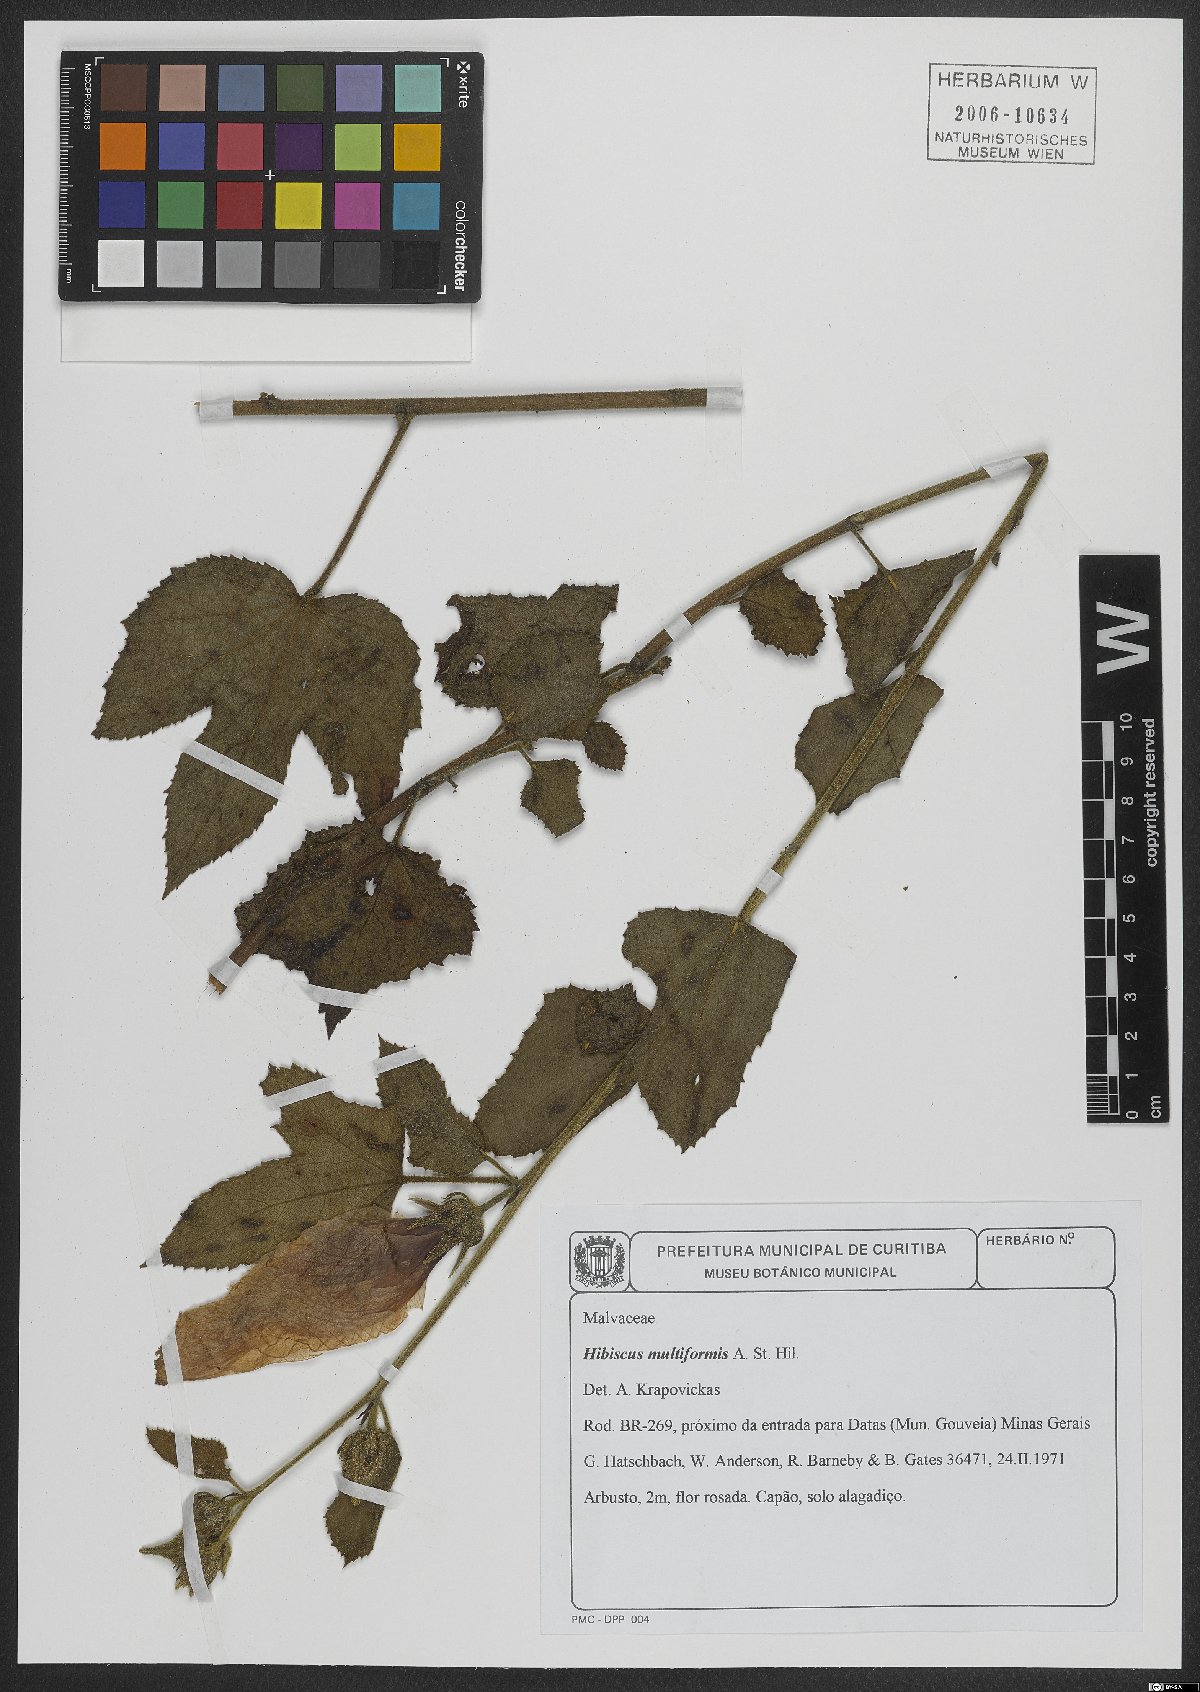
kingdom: Plantae
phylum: Tracheophyta
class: Magnoliopsida
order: Malvales
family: Malvaceae
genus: Hibiscus
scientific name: Hibiscus multiformis
